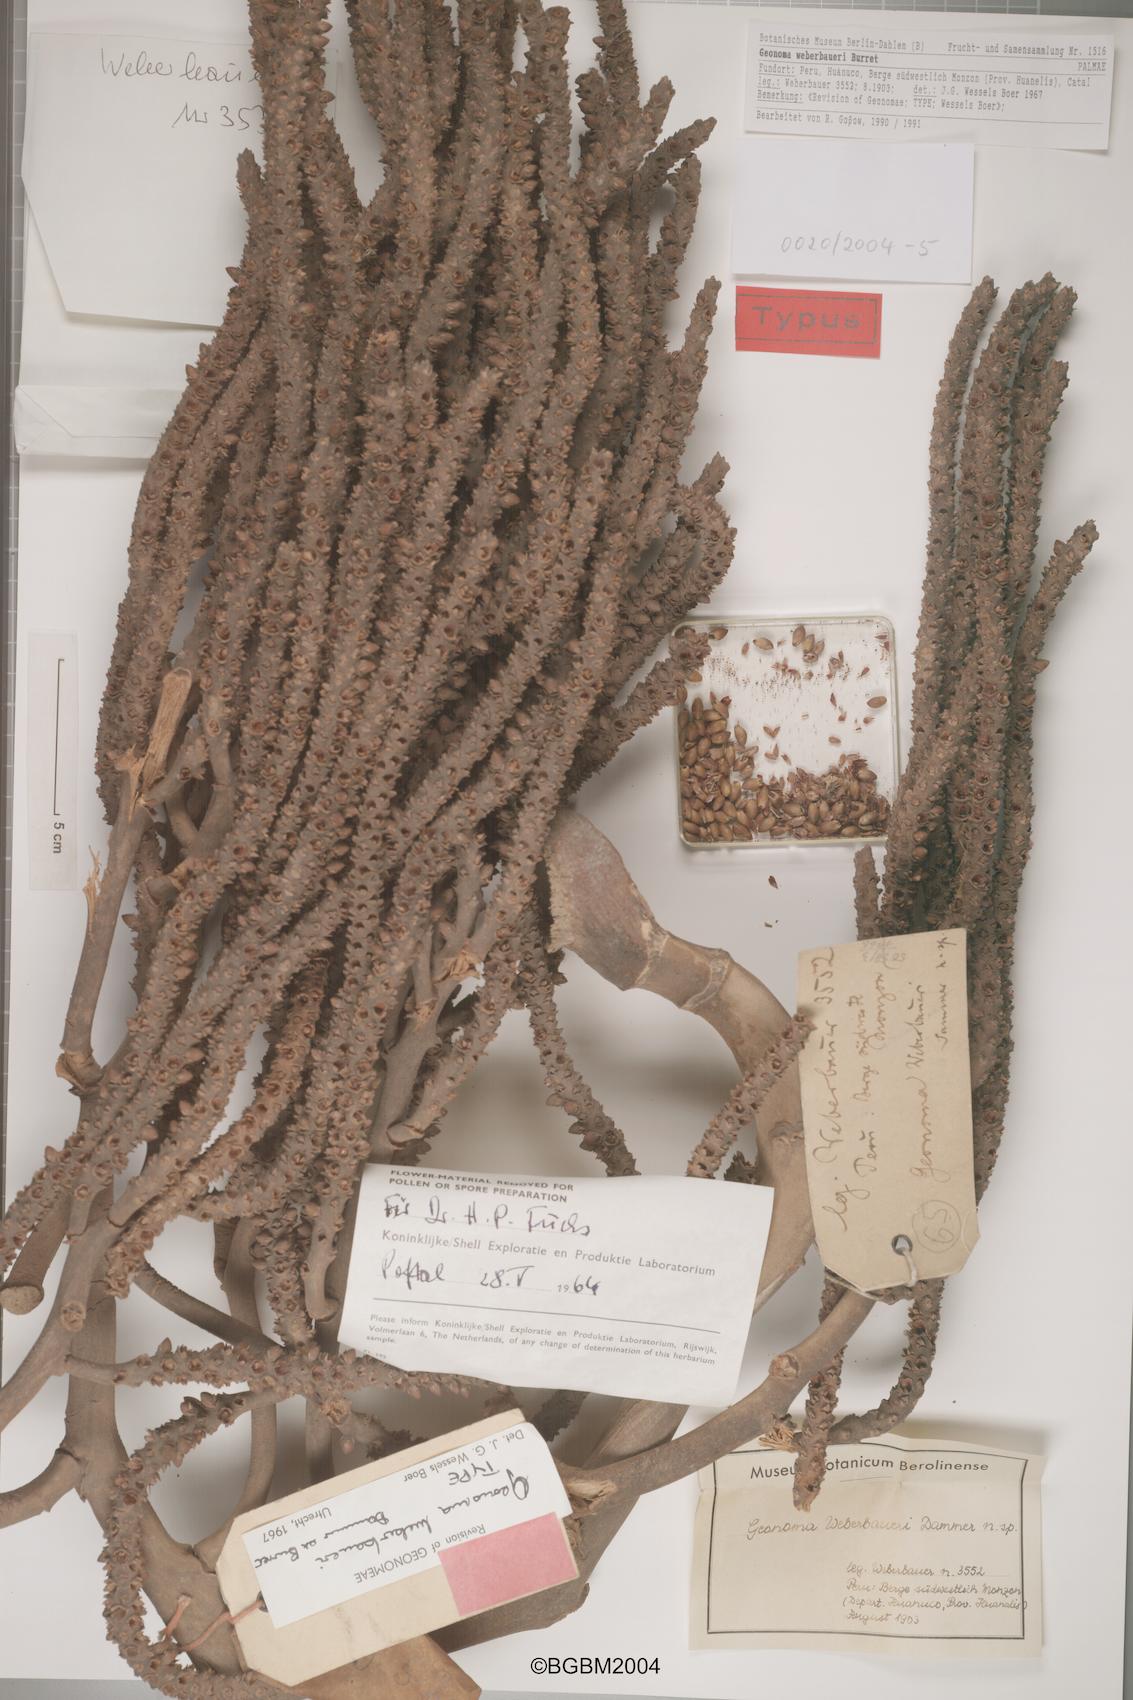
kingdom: Plantae
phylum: Tracheophyta
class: Liliopsida
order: Arecales
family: Arecaceae
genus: Geonoma
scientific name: Geonoma undata
